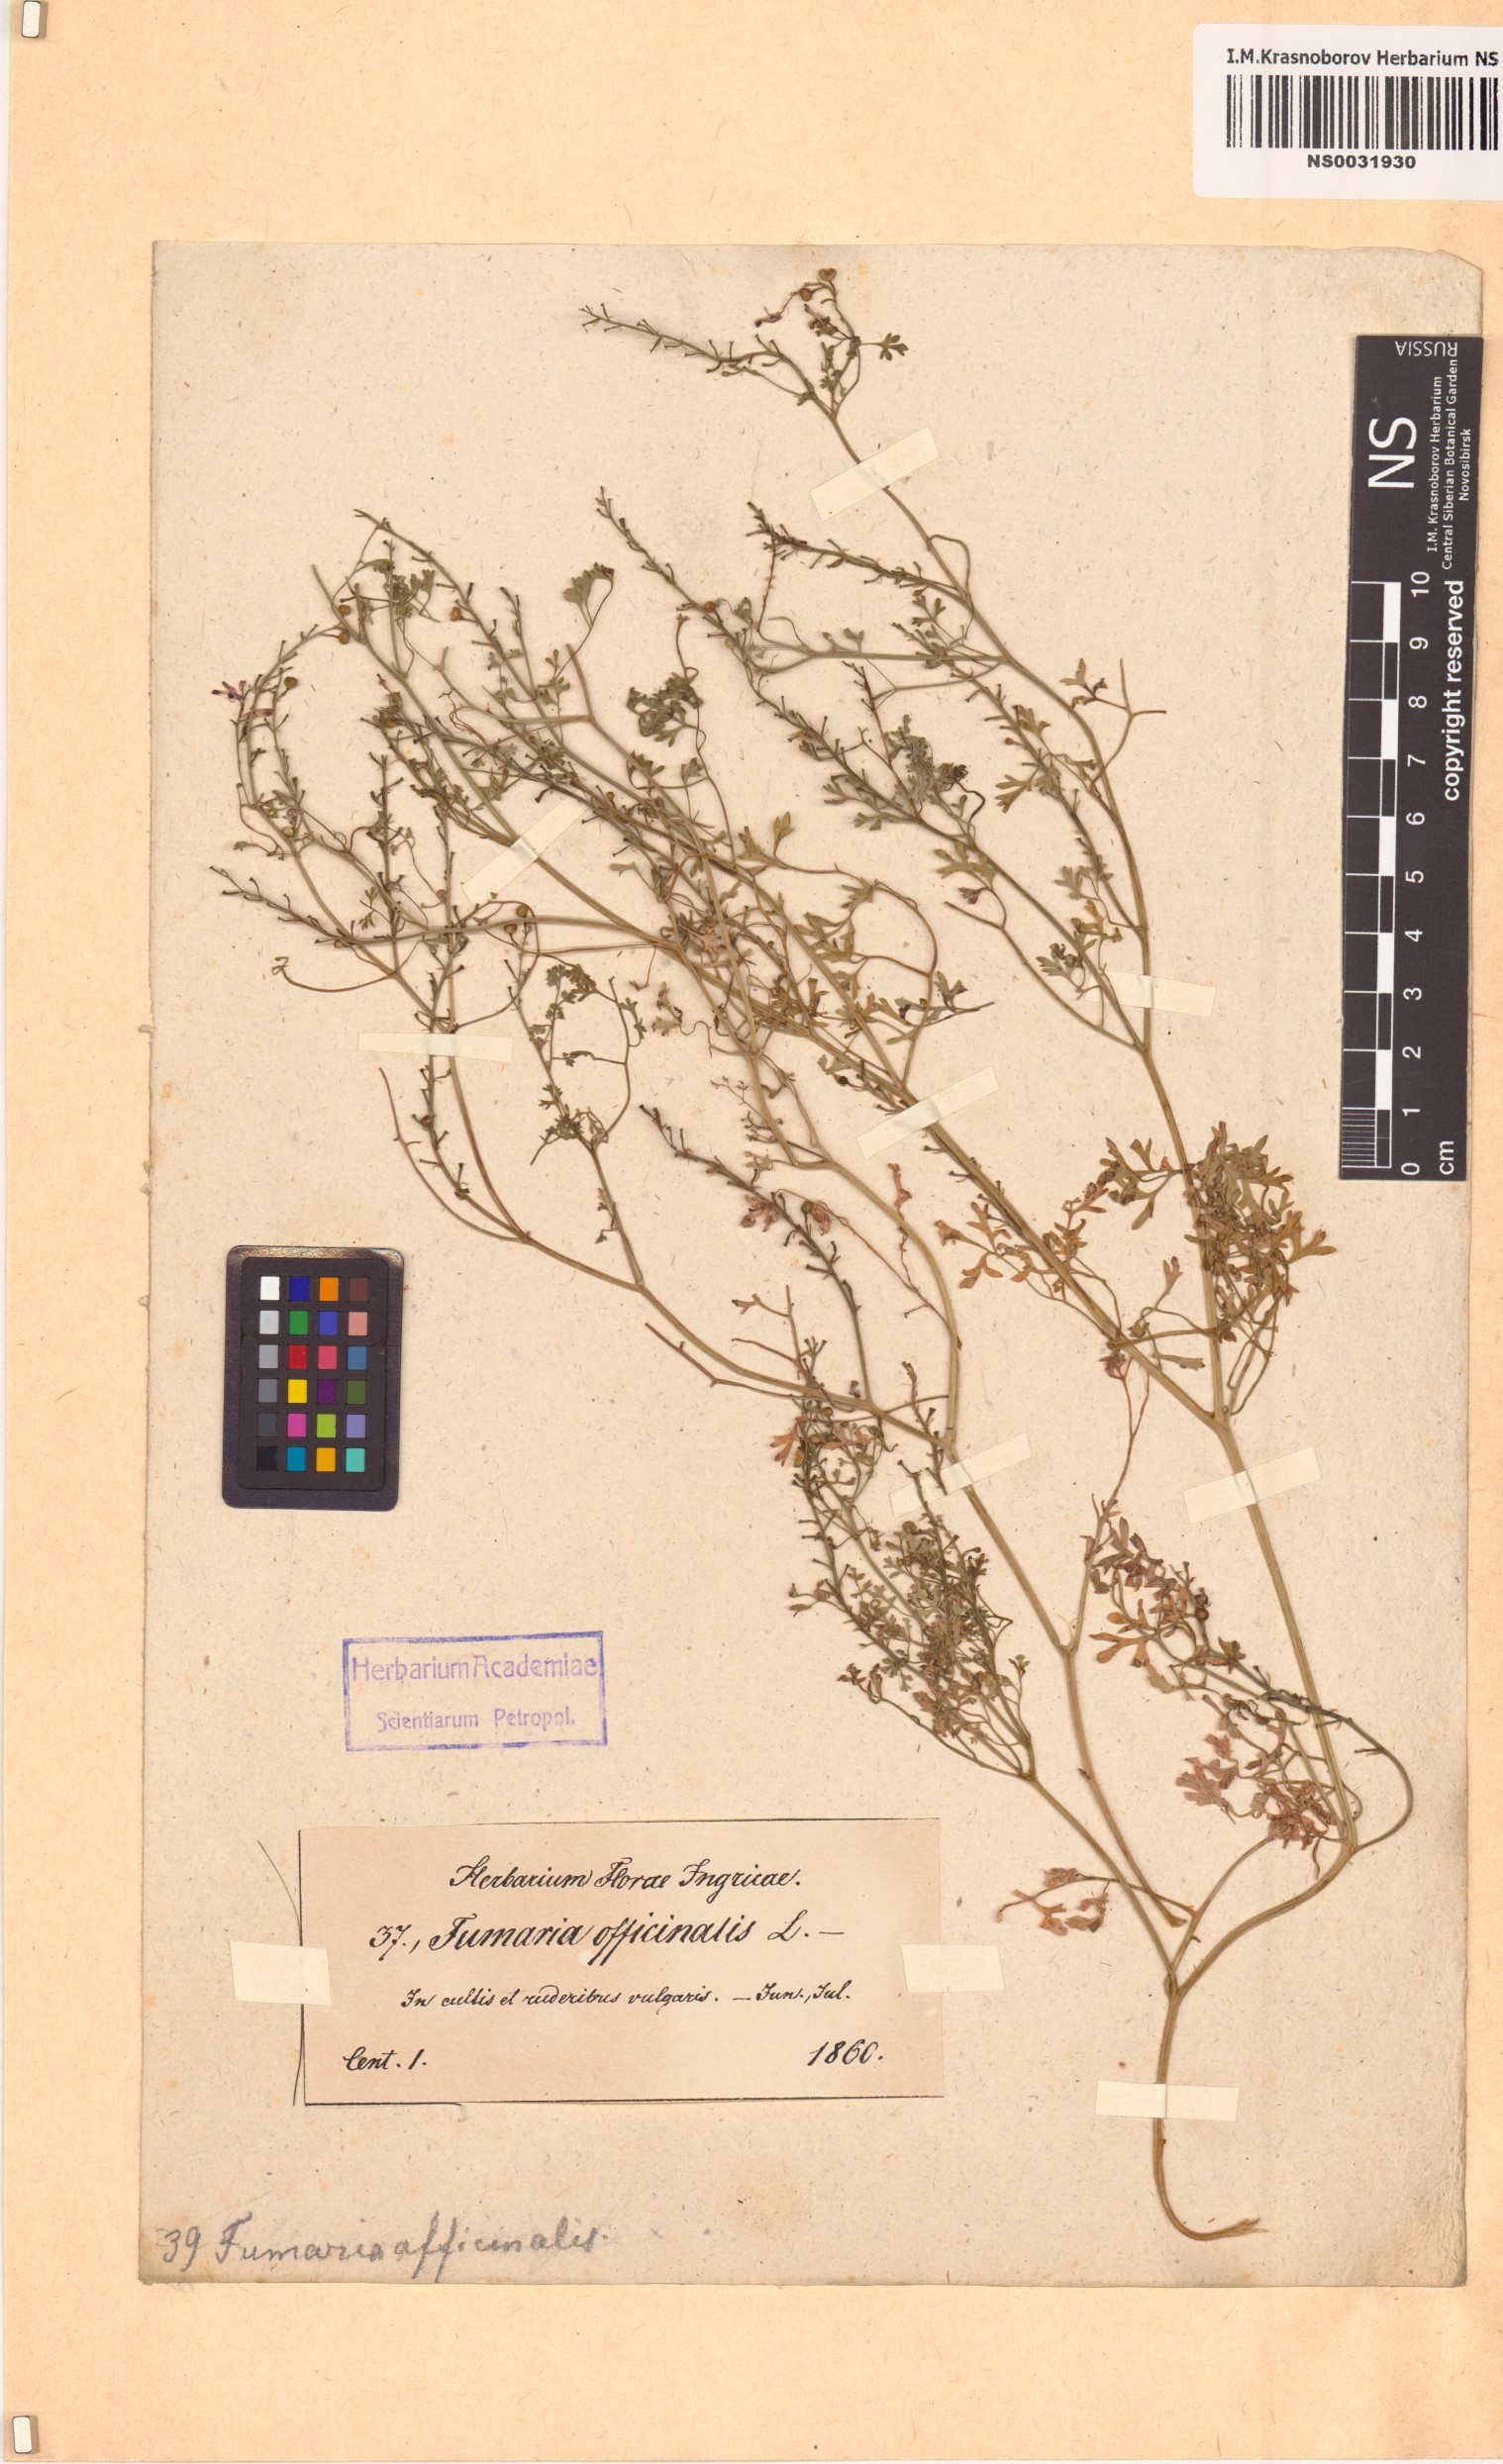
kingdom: Plantae
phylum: Tracheophyta
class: Magnoliopsida
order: Ranunculales
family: Papaveraceae
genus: Fumaria
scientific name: Fumaria officinalis
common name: Common fumitory
